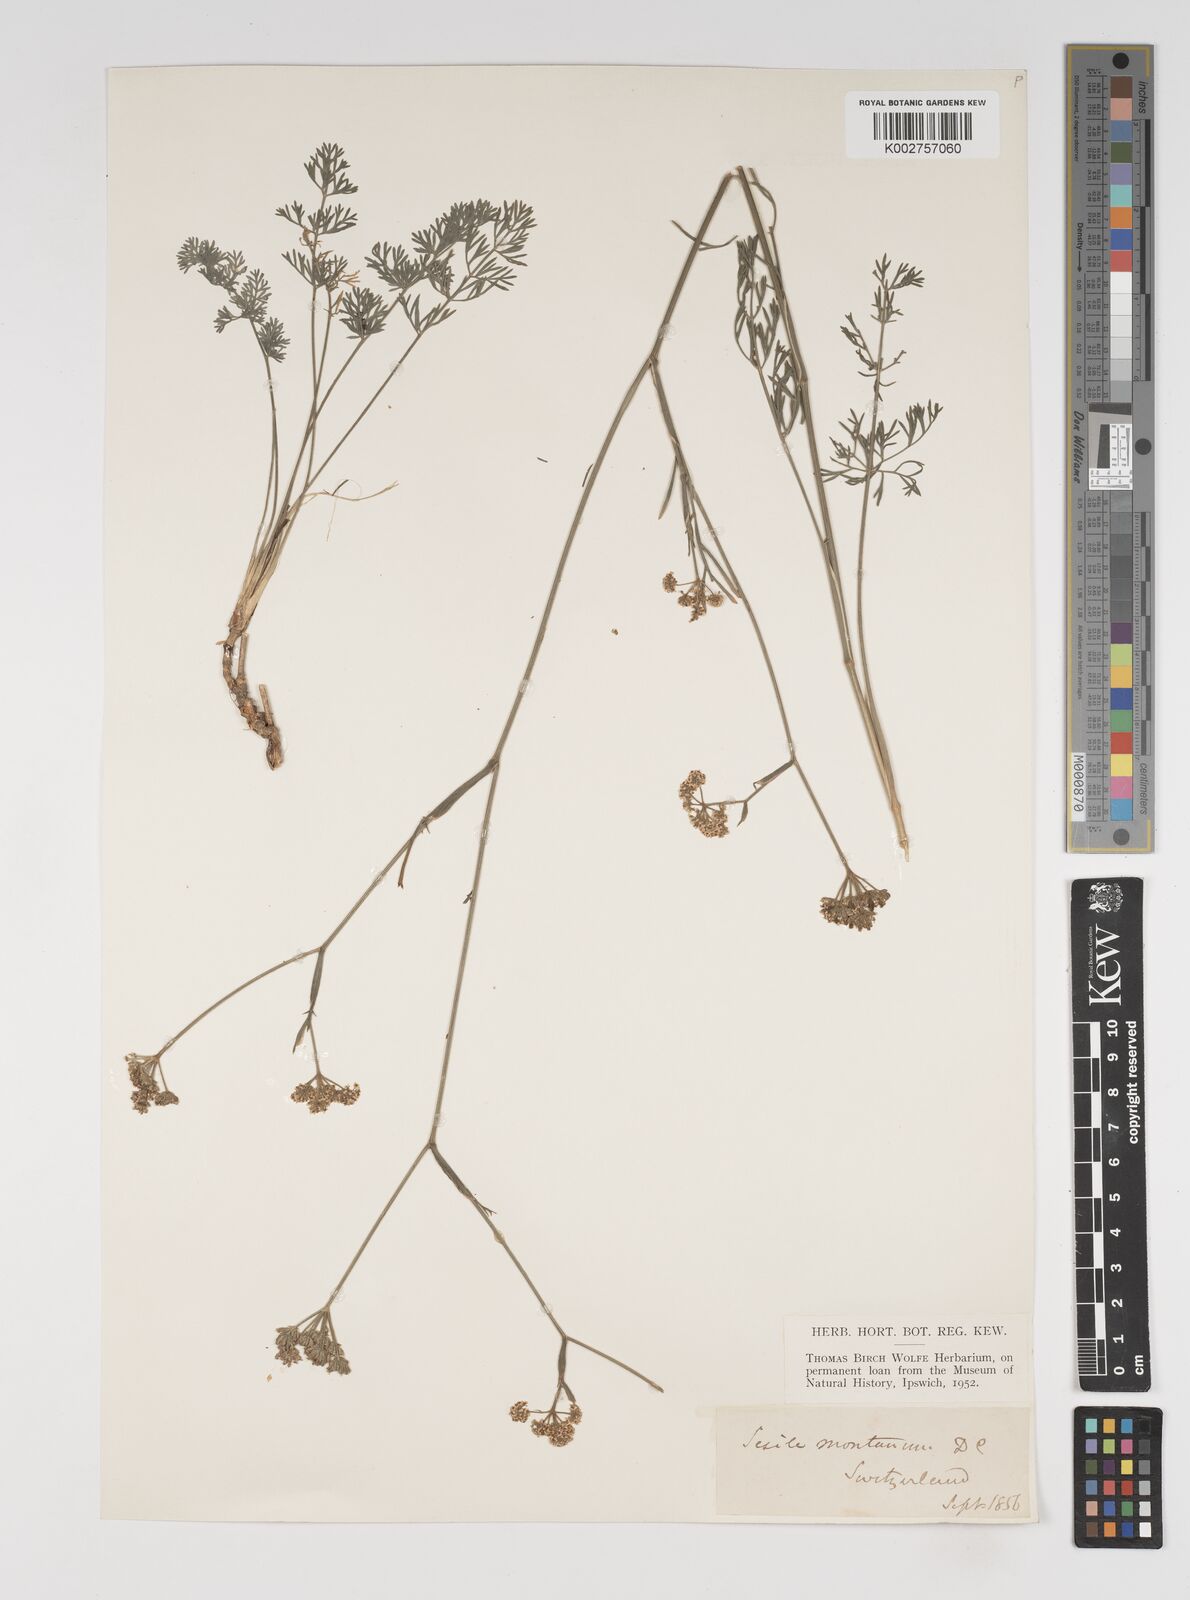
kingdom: Plantae
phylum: Tracheophyta
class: Magnoliopsida
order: Apiales
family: Apiaceae
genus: Seseli
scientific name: Seseli montanum
